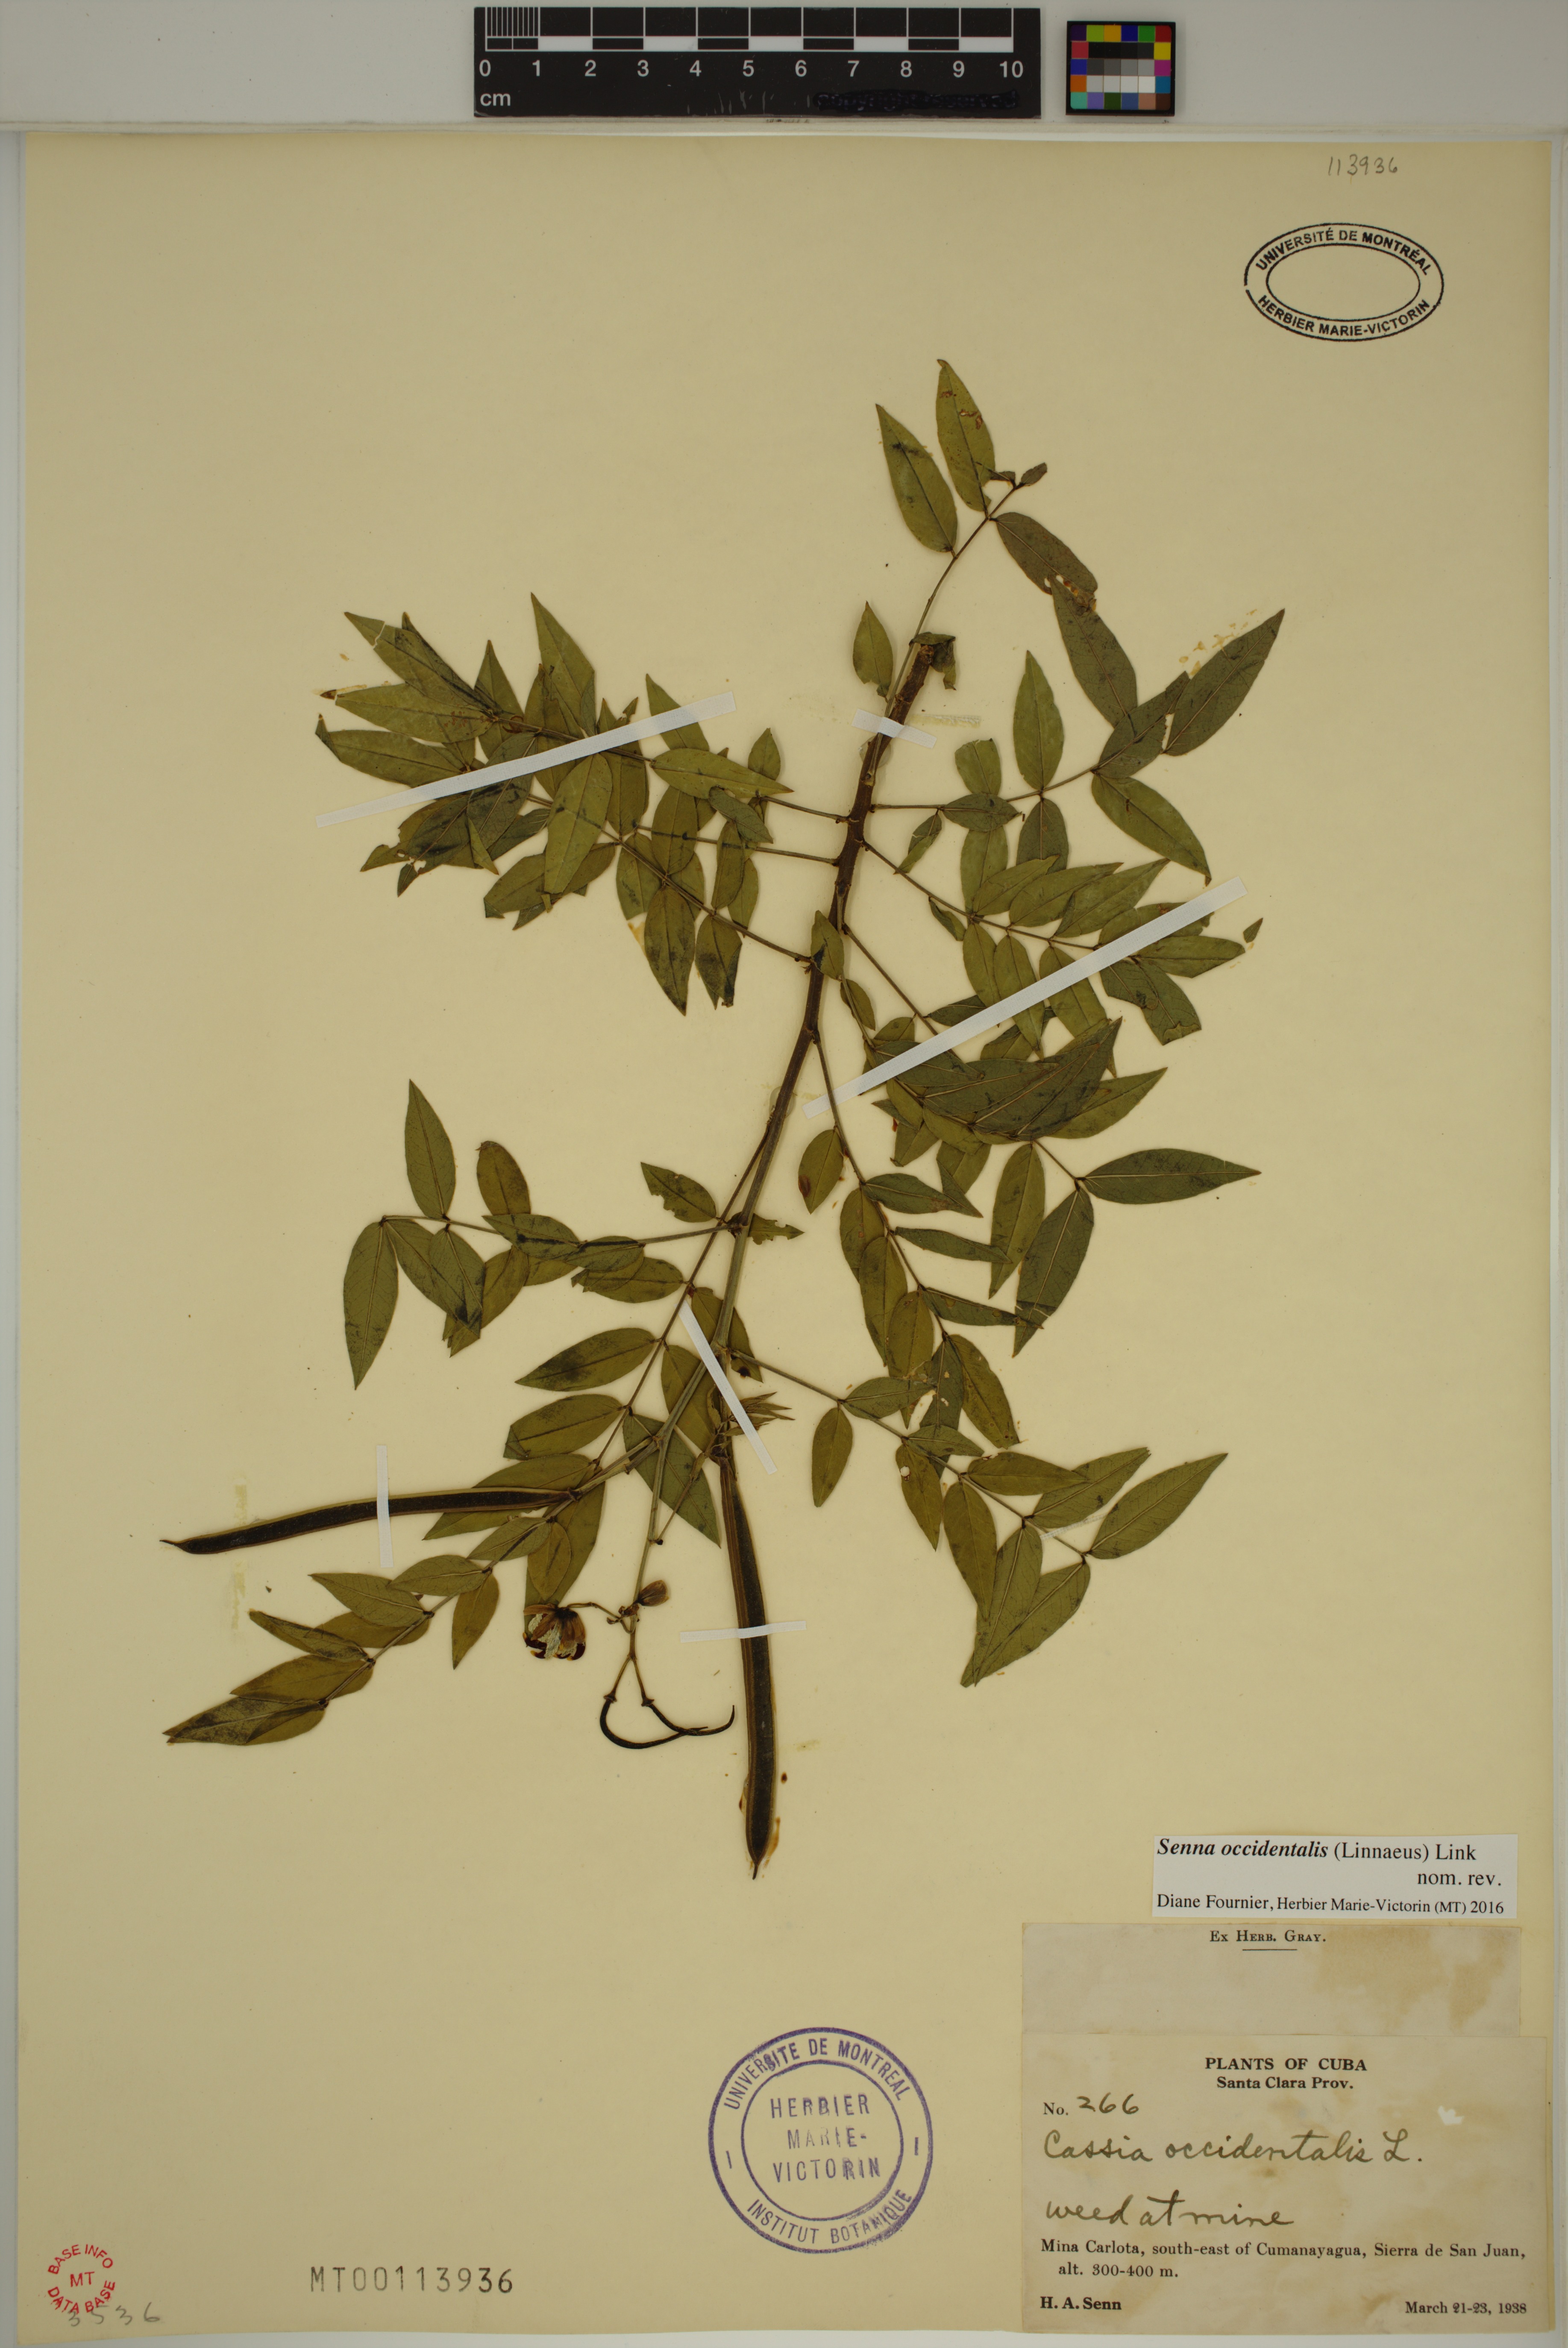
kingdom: Plantae
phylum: Tracheophyta
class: Magnoliopsida
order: Fabales
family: Fabaceae
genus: Senna
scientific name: Senna occidentalis
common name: Septicweed
